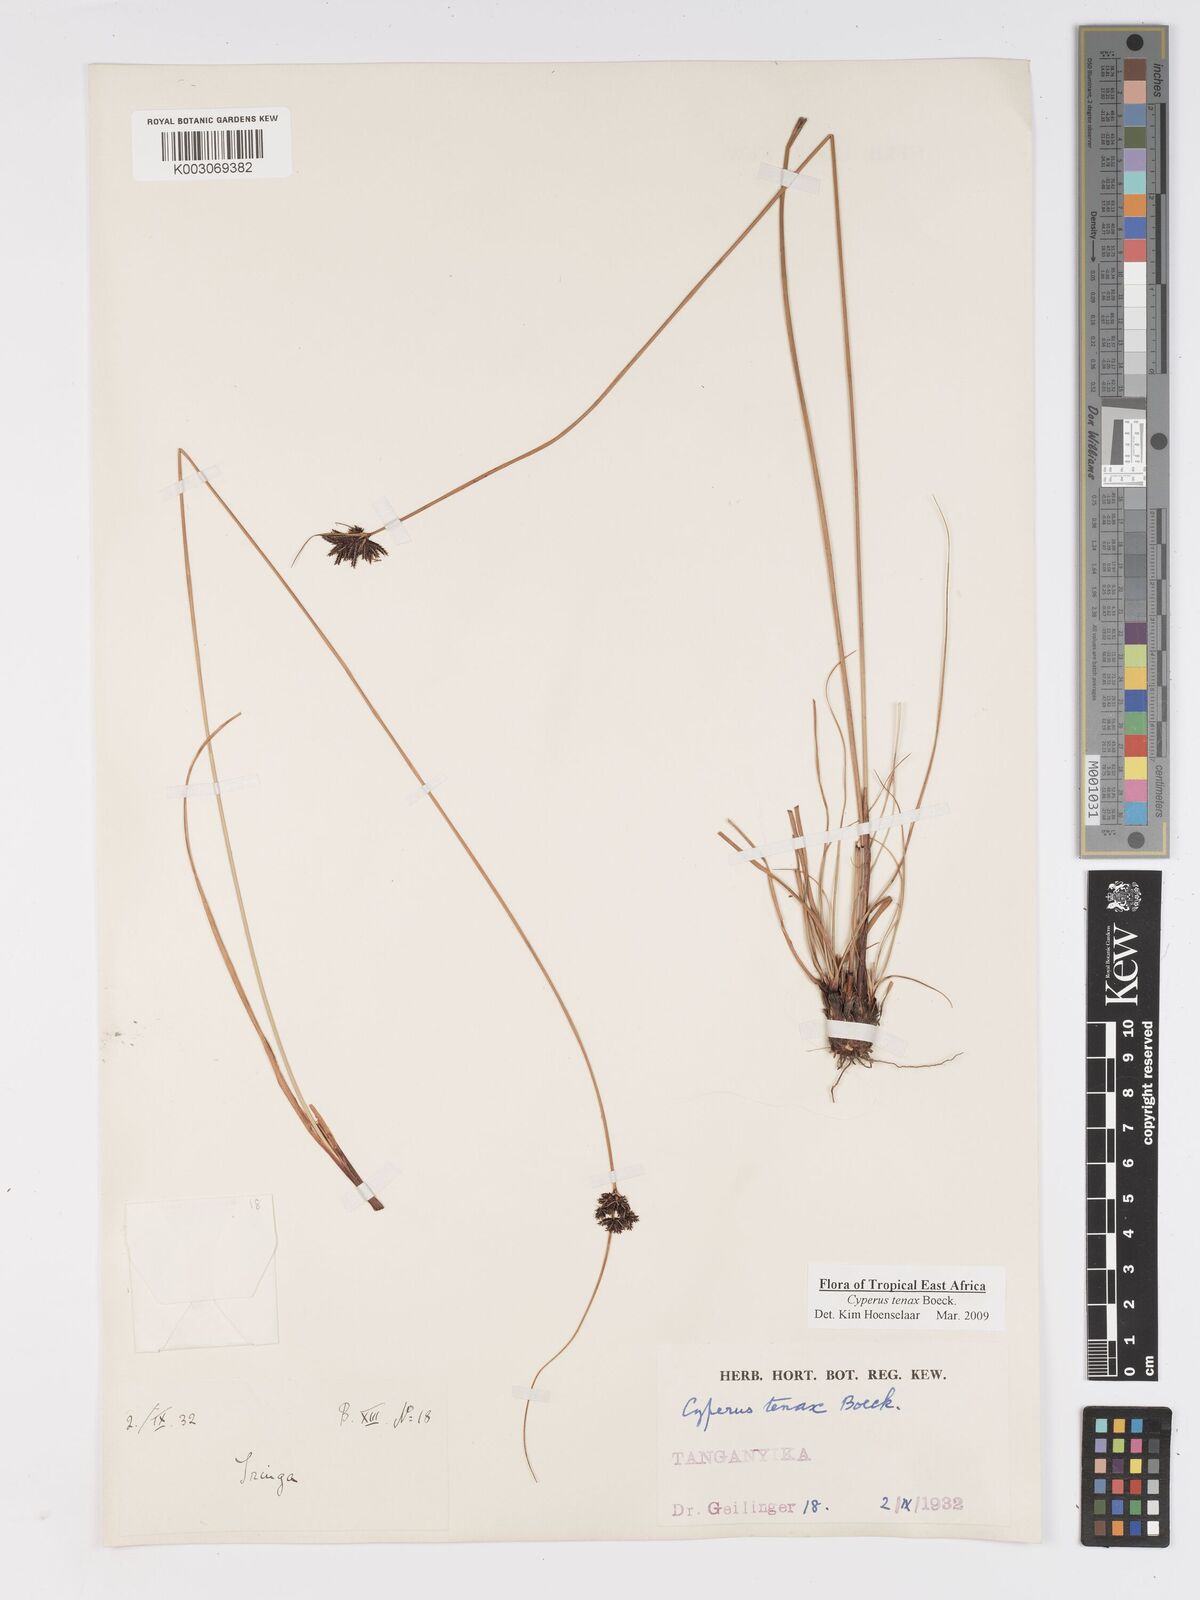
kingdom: Plantae
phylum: Tracheophyta
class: Liliopsida
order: Poales
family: Cyperaceae
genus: Cyperus
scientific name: Cyperus tenax
